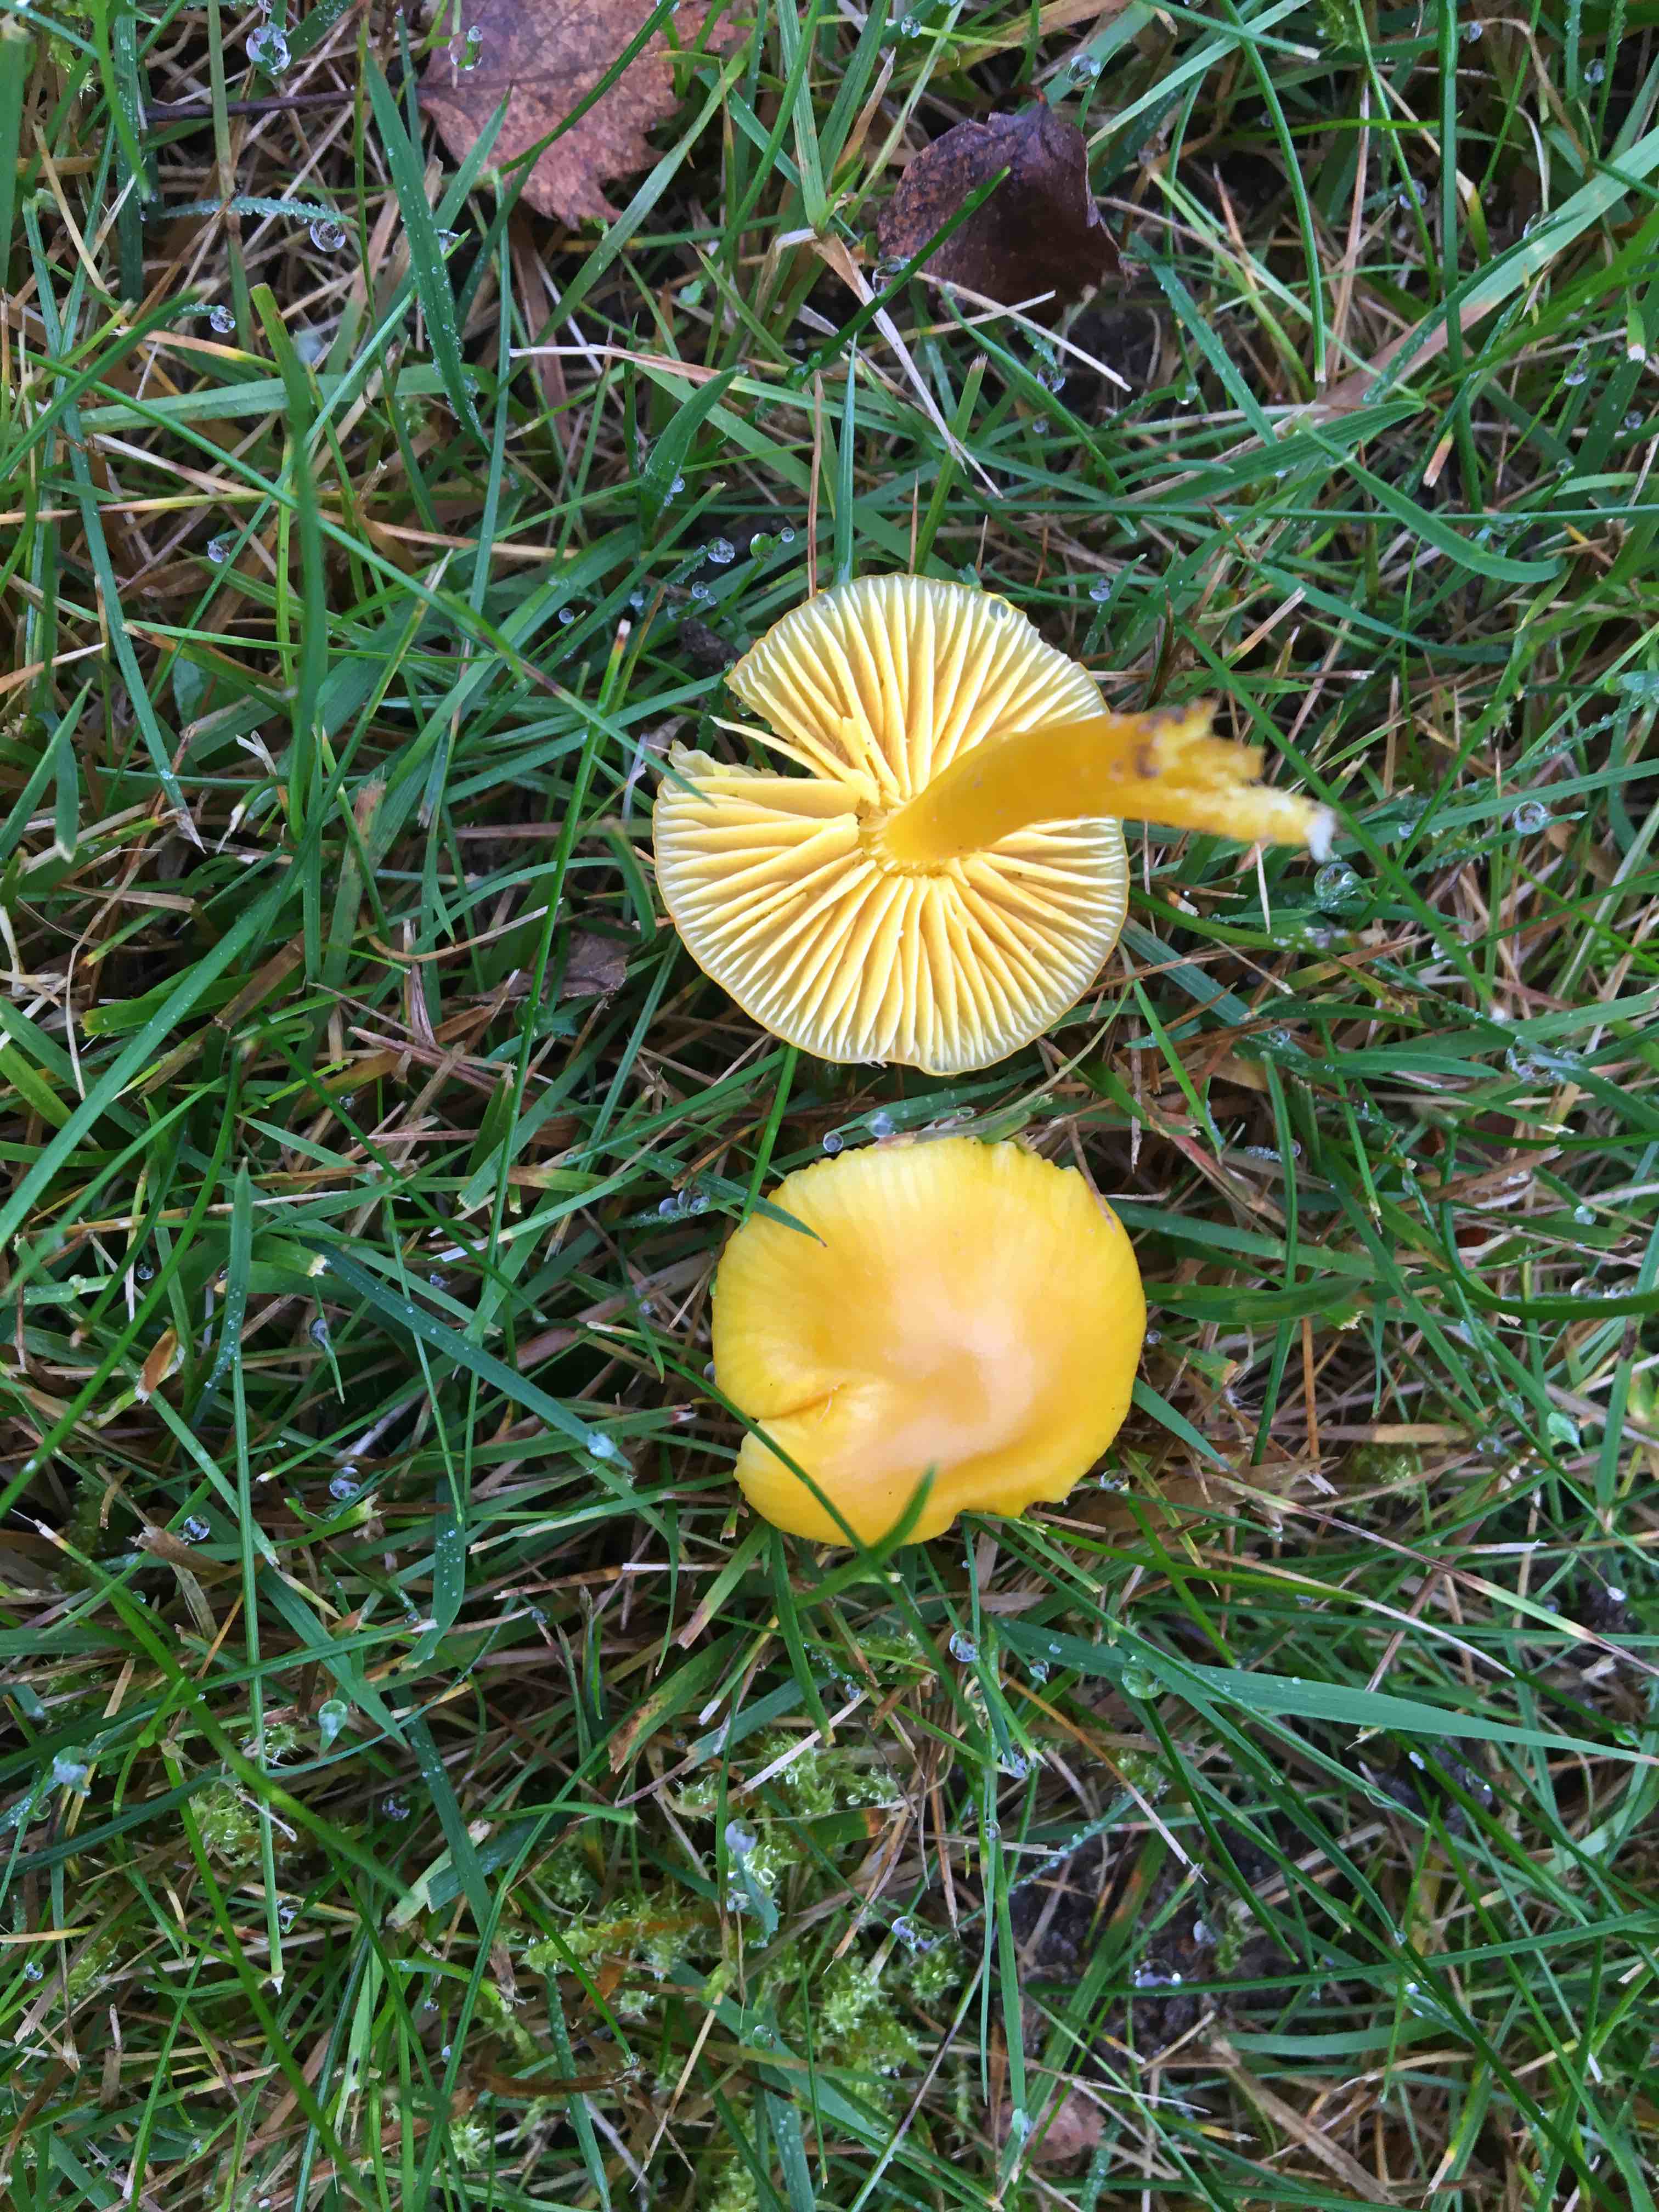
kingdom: Fungi
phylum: Basidiomycota
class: Agaricomycetes
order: Agaricales
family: Hygrophoraceae
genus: Hygrocybe
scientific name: Hygrocybe ceracea
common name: voksgul vokshat
